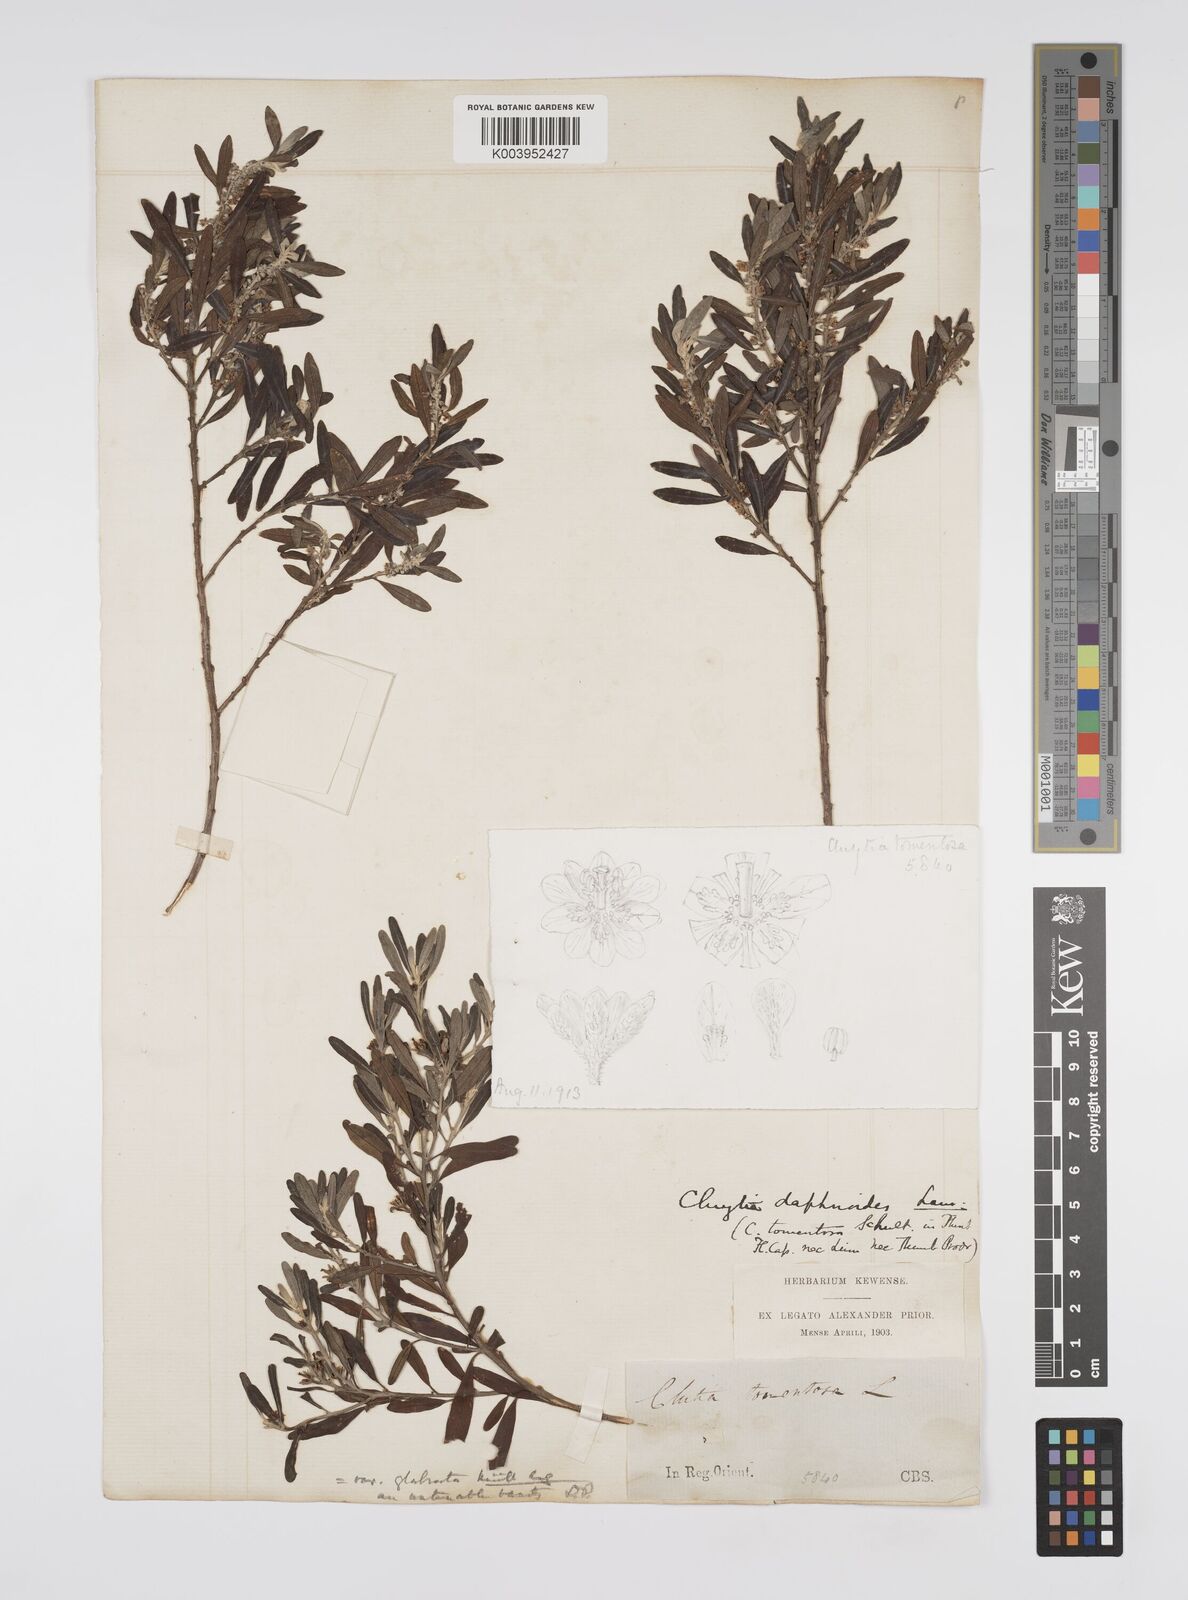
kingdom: Plantae
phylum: Tracheophyta
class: Magnoliopsida
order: Malpighiales
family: Peraceae
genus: Clutia
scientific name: Clutia daphnoides
